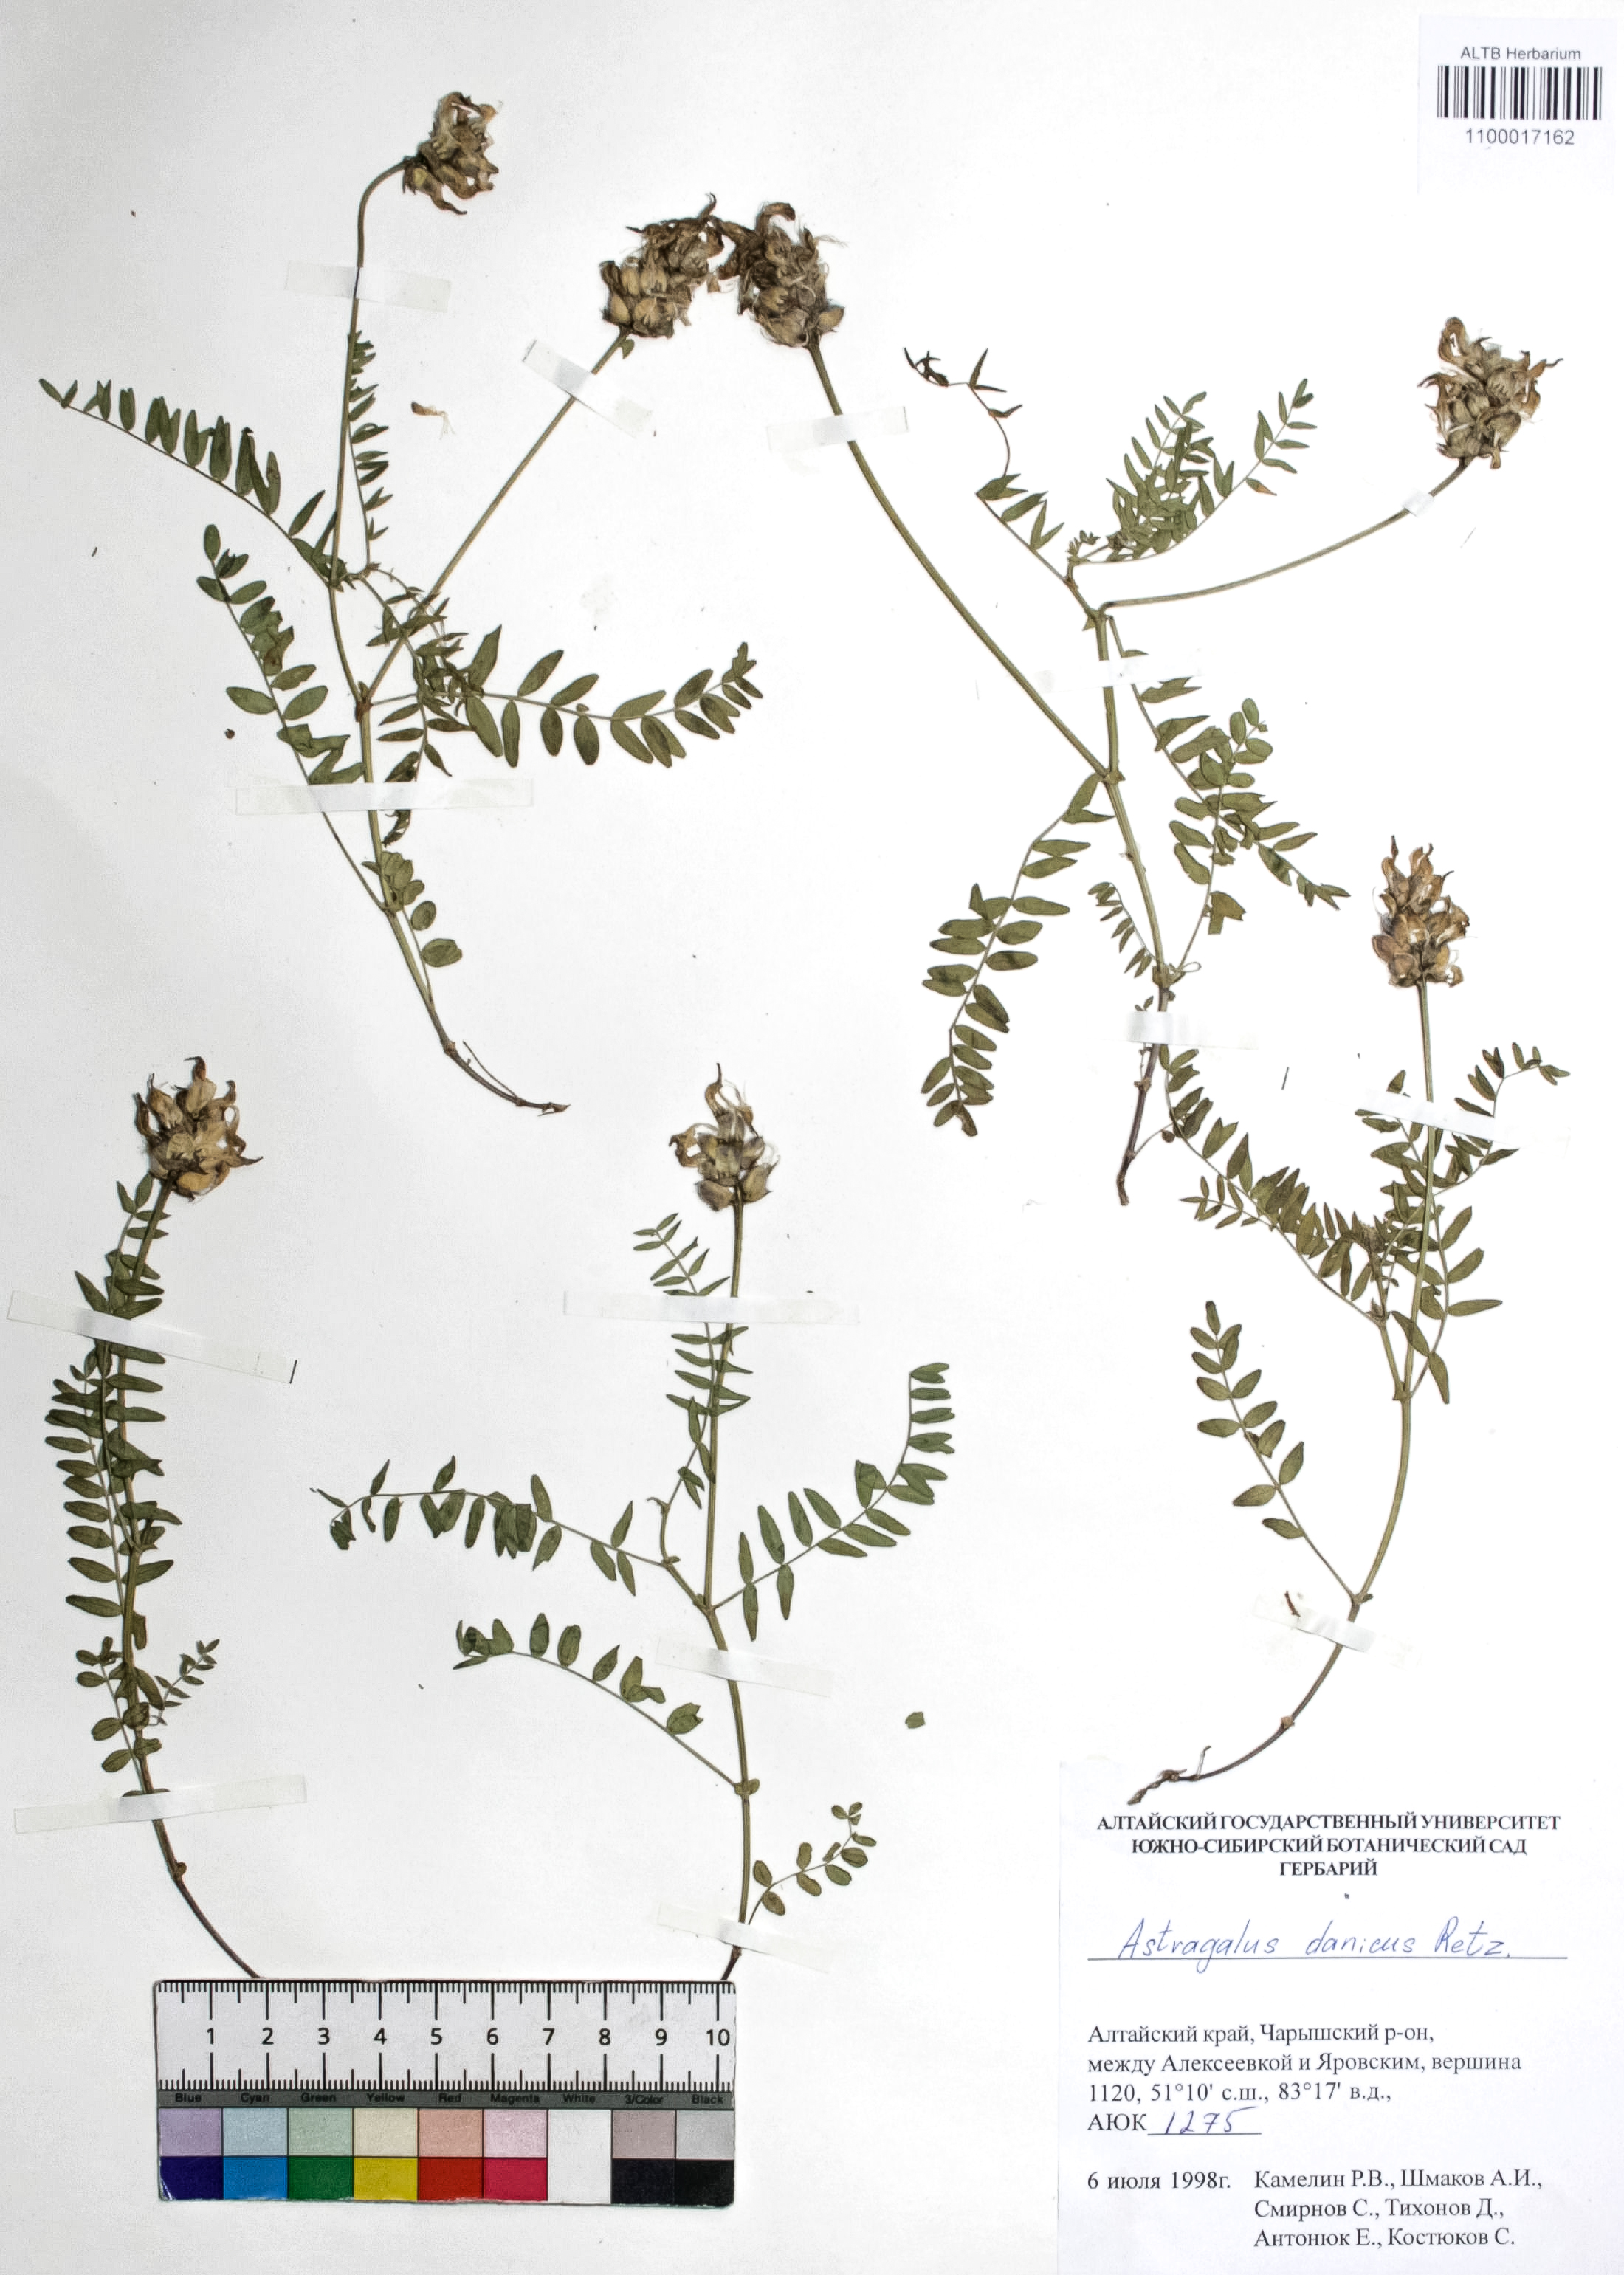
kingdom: Plantae
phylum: Tracheophyta
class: Magnoliopsida
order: Fabales
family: Fabaceae
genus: Astragalus
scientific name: Astragalus danicus
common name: Purple milk-vetch
